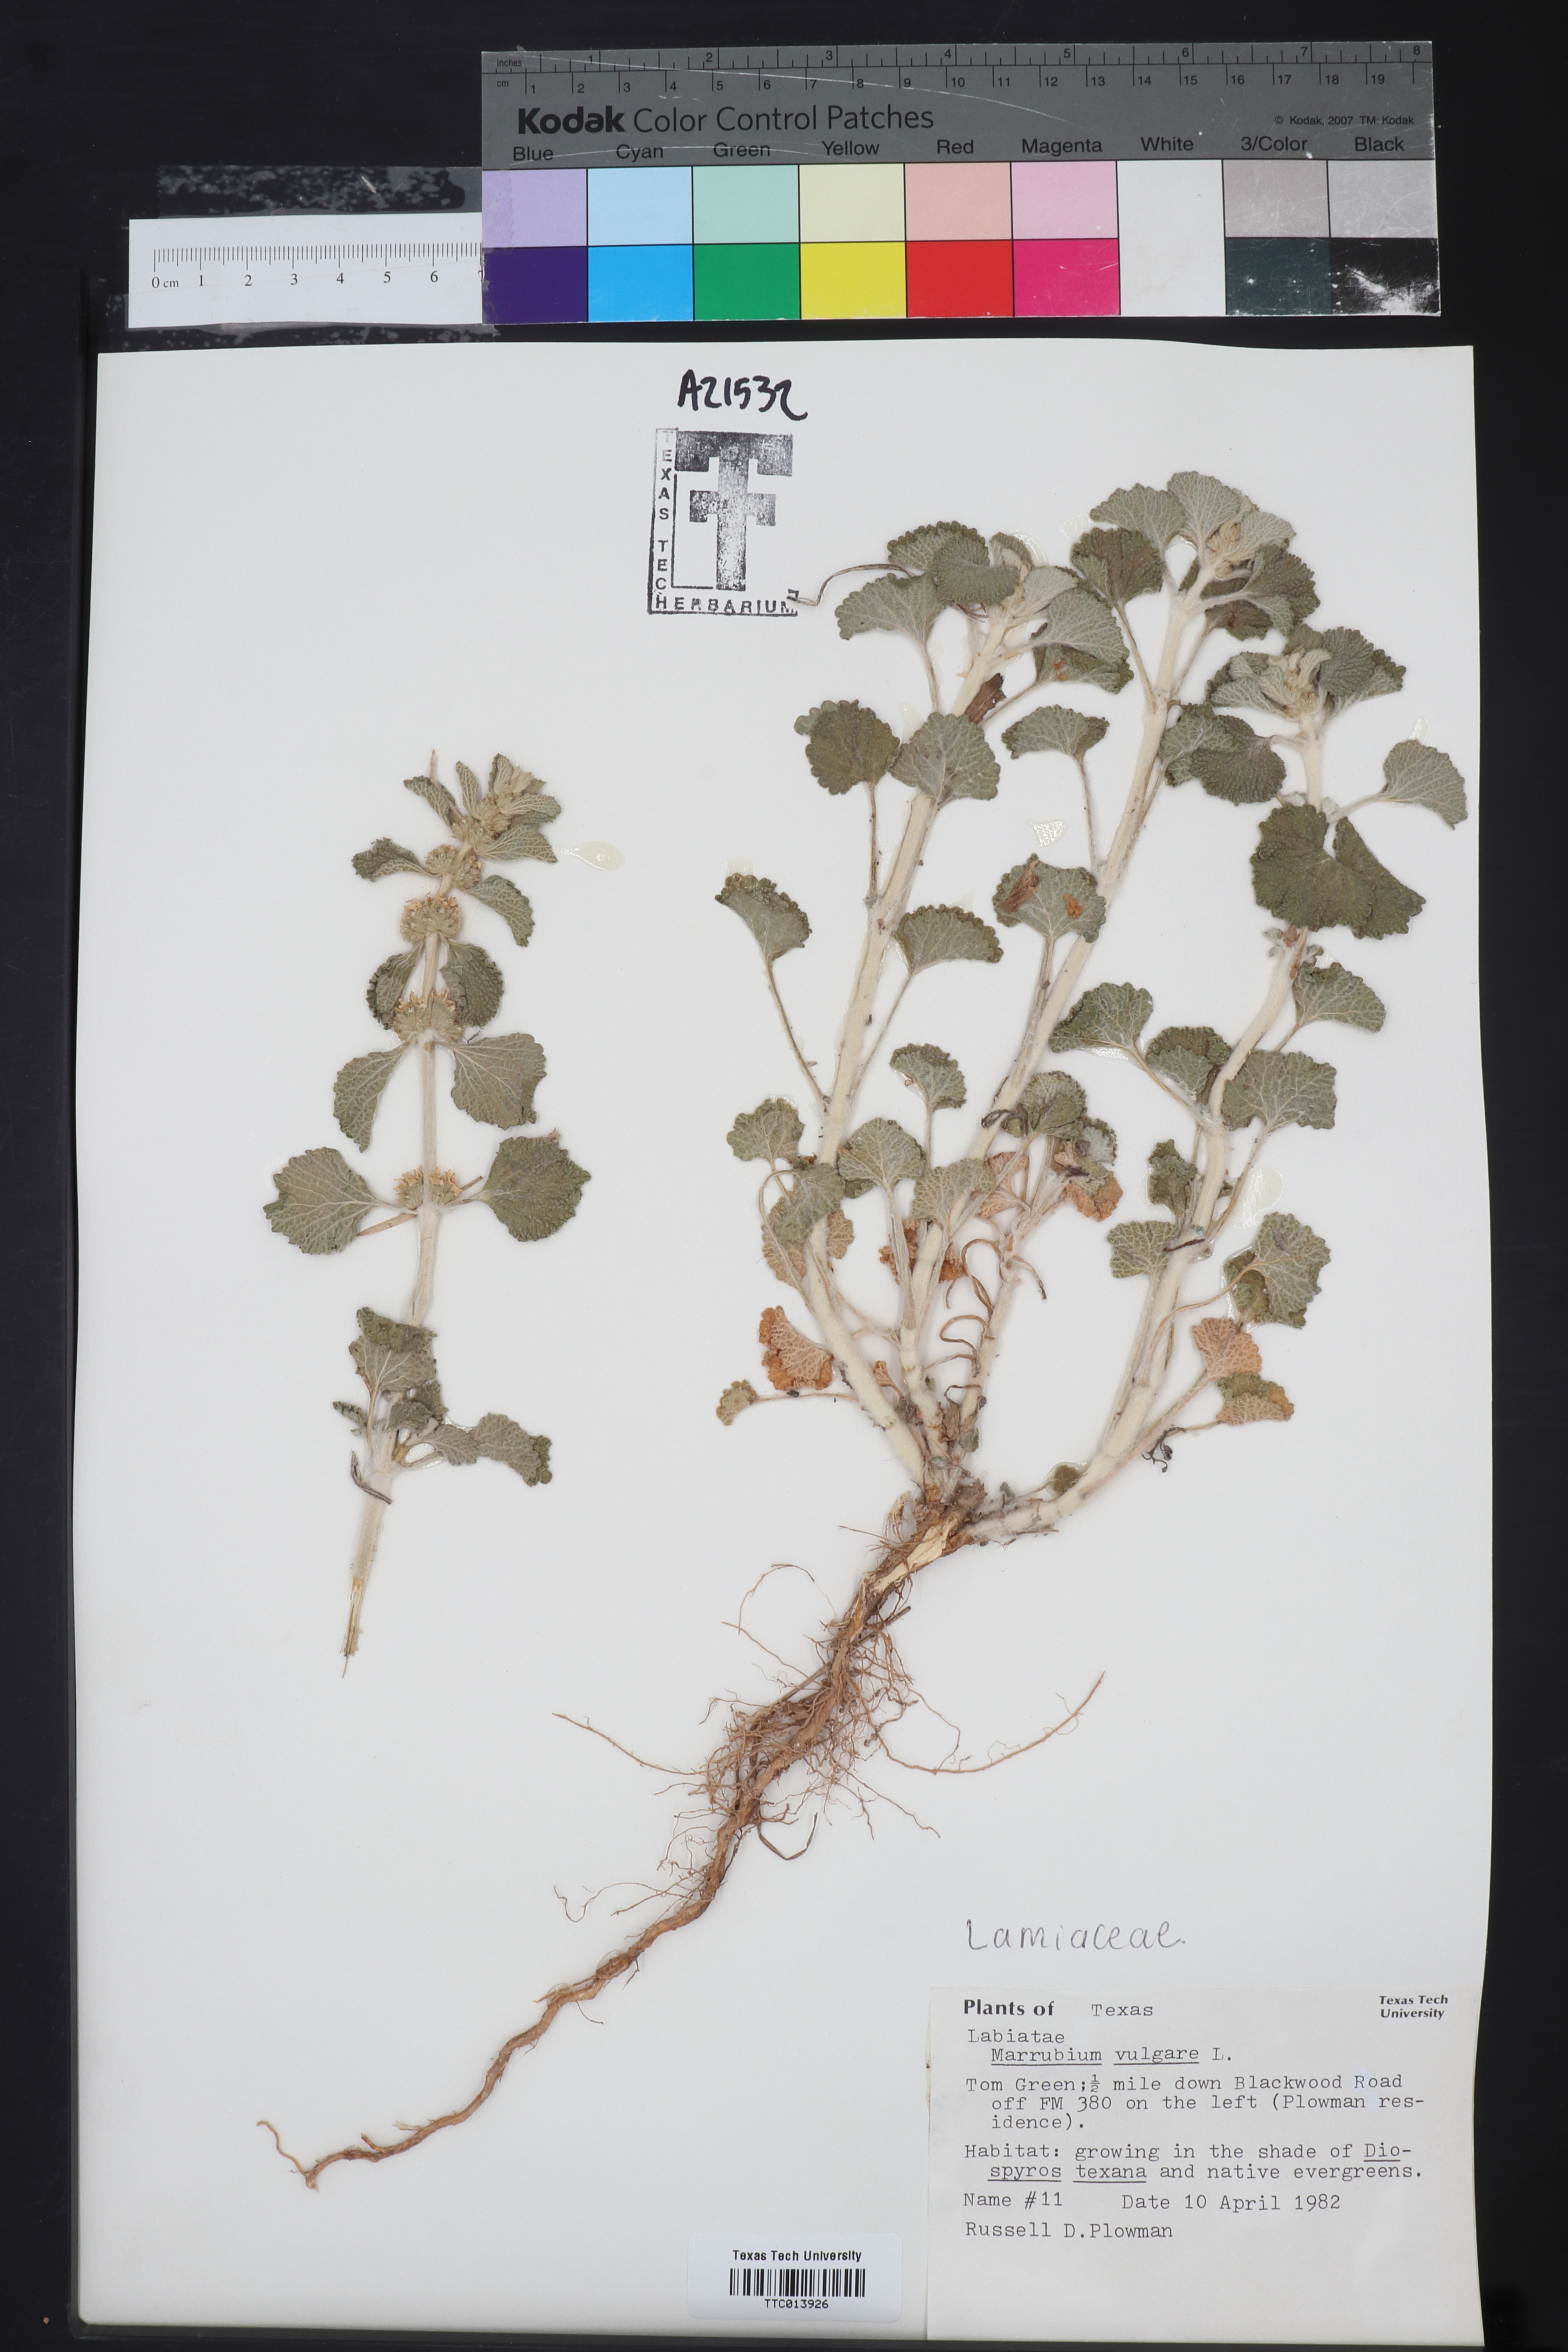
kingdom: Plantae
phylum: Tracheophyta
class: Magnoliopsida
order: Lamiales
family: Lamiaceae
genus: Marrubium
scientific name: Marrubium vulgare
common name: Horehound
